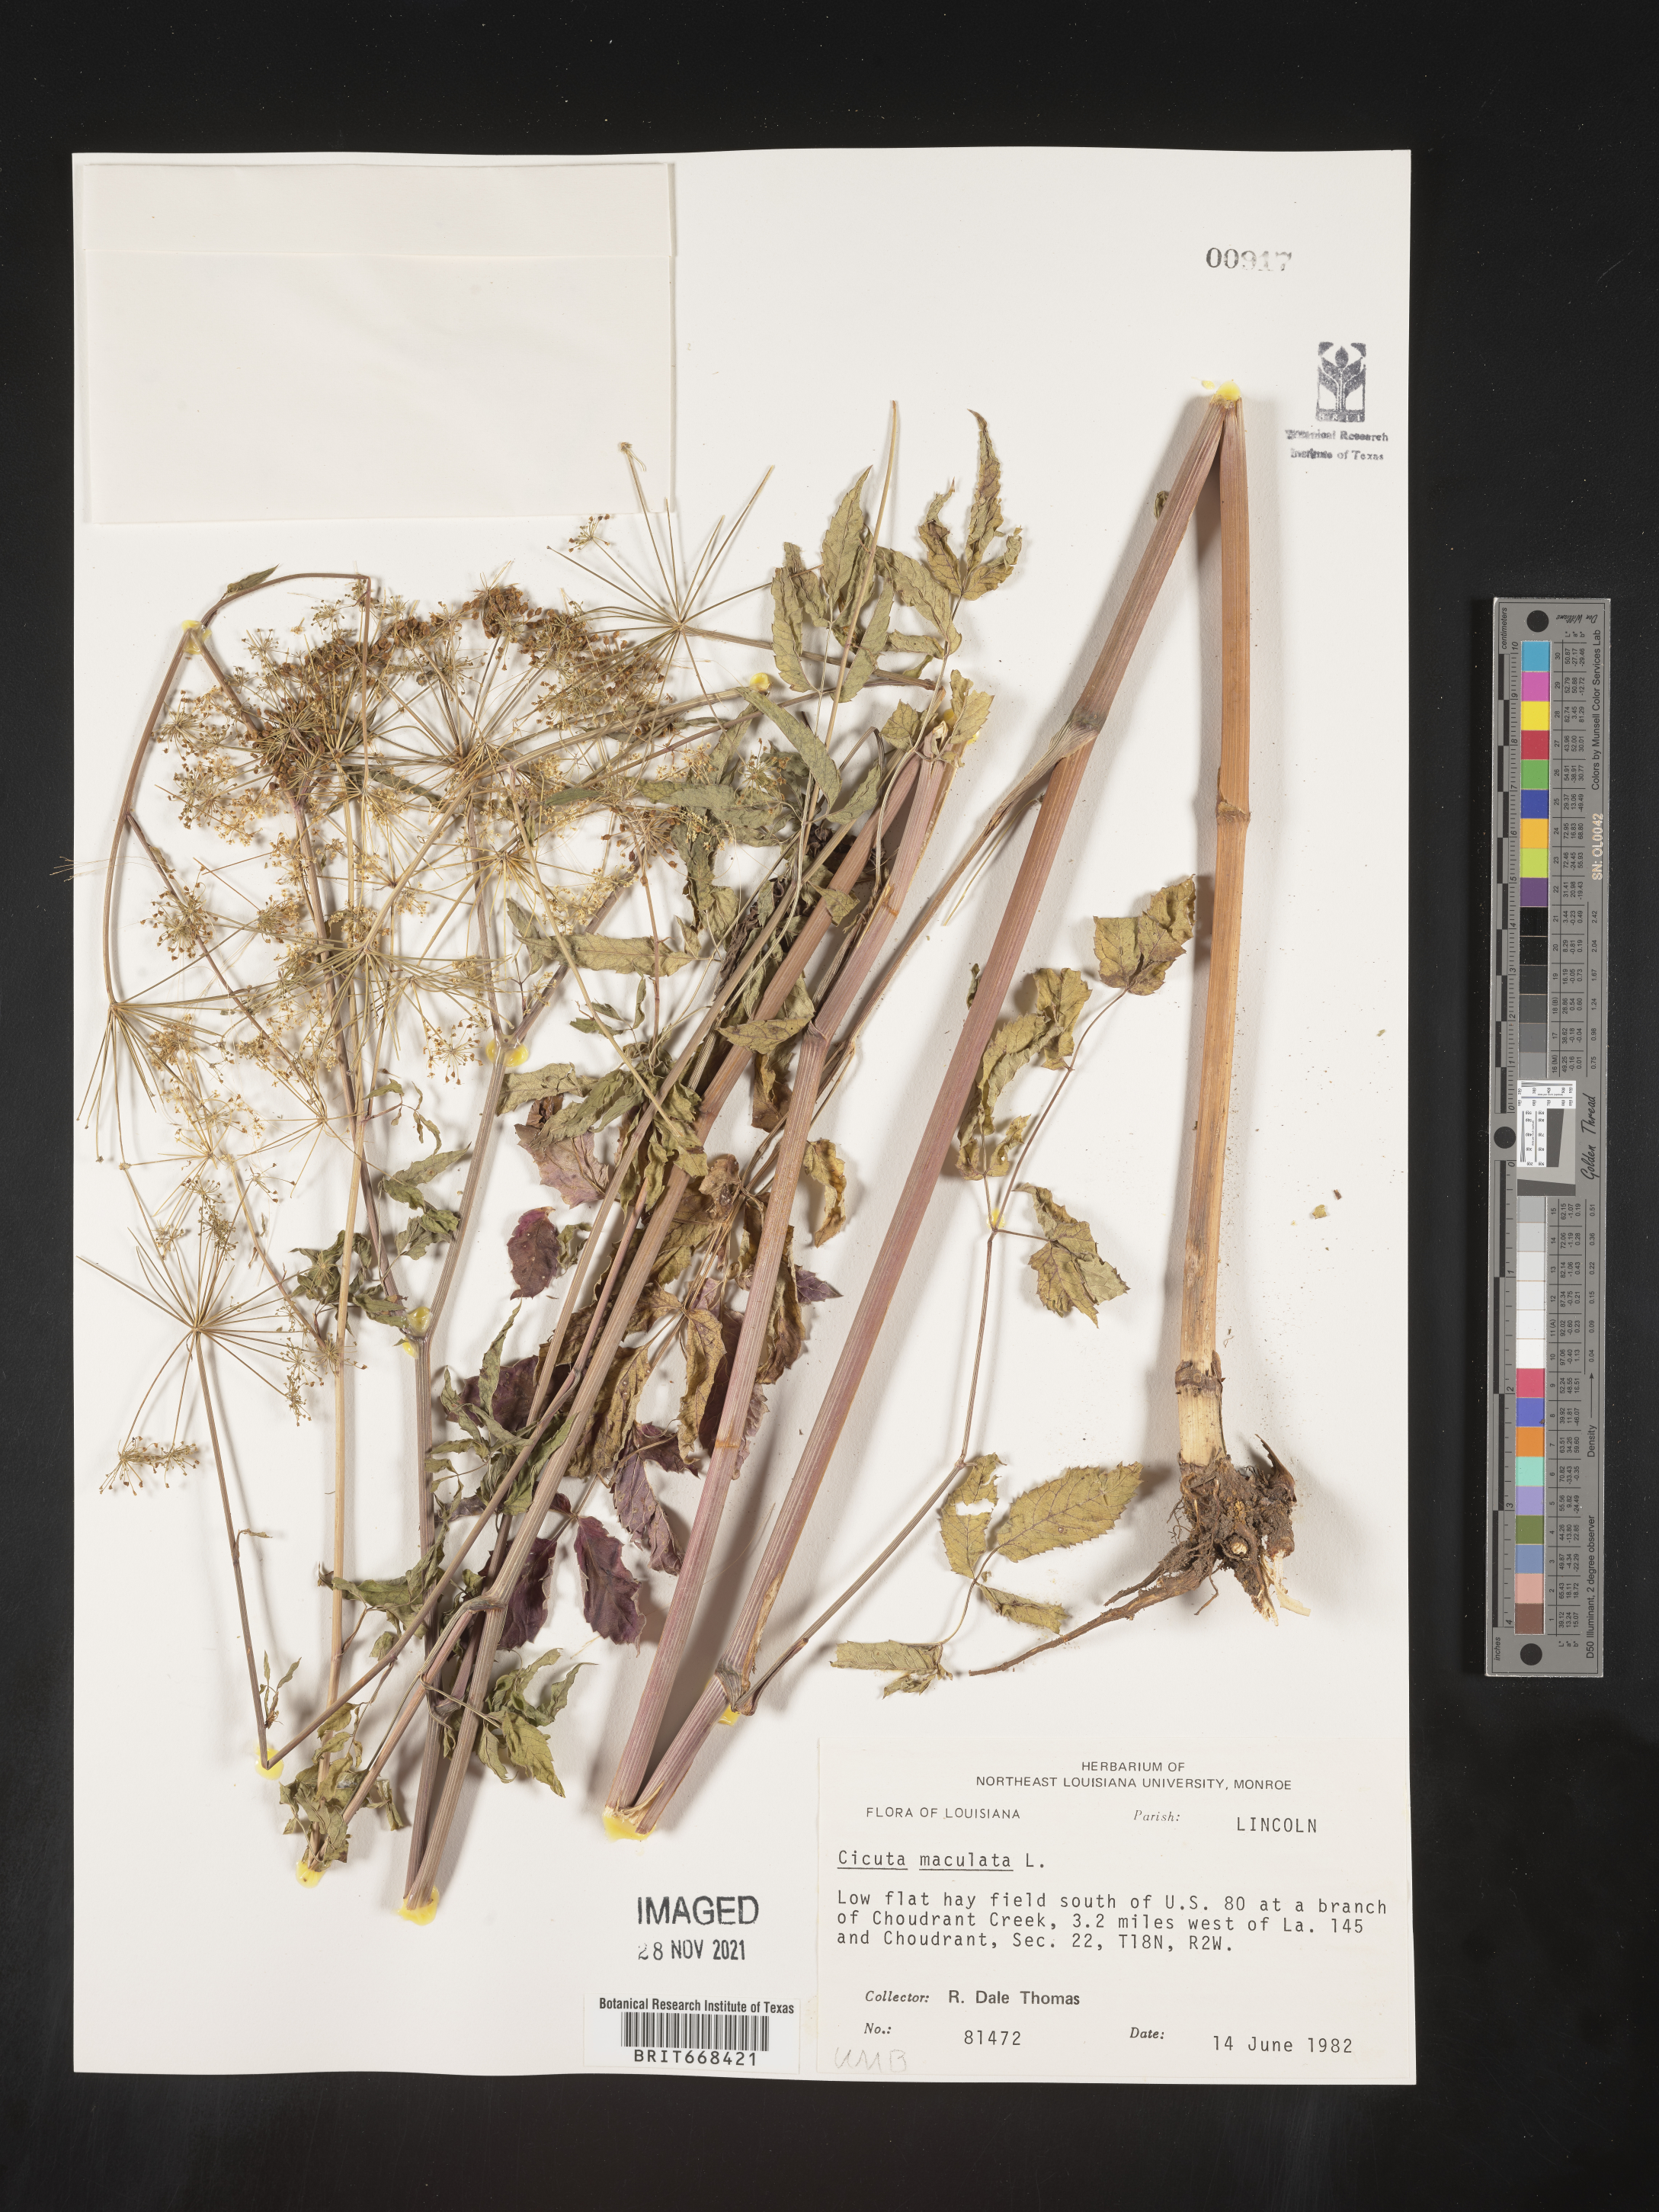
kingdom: Plantae
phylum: Tracheophyta
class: Magnoliopsida
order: Apiales
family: Apiaceae
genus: Cicuta
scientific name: Cicuta maculata
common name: Spotted cowbane
